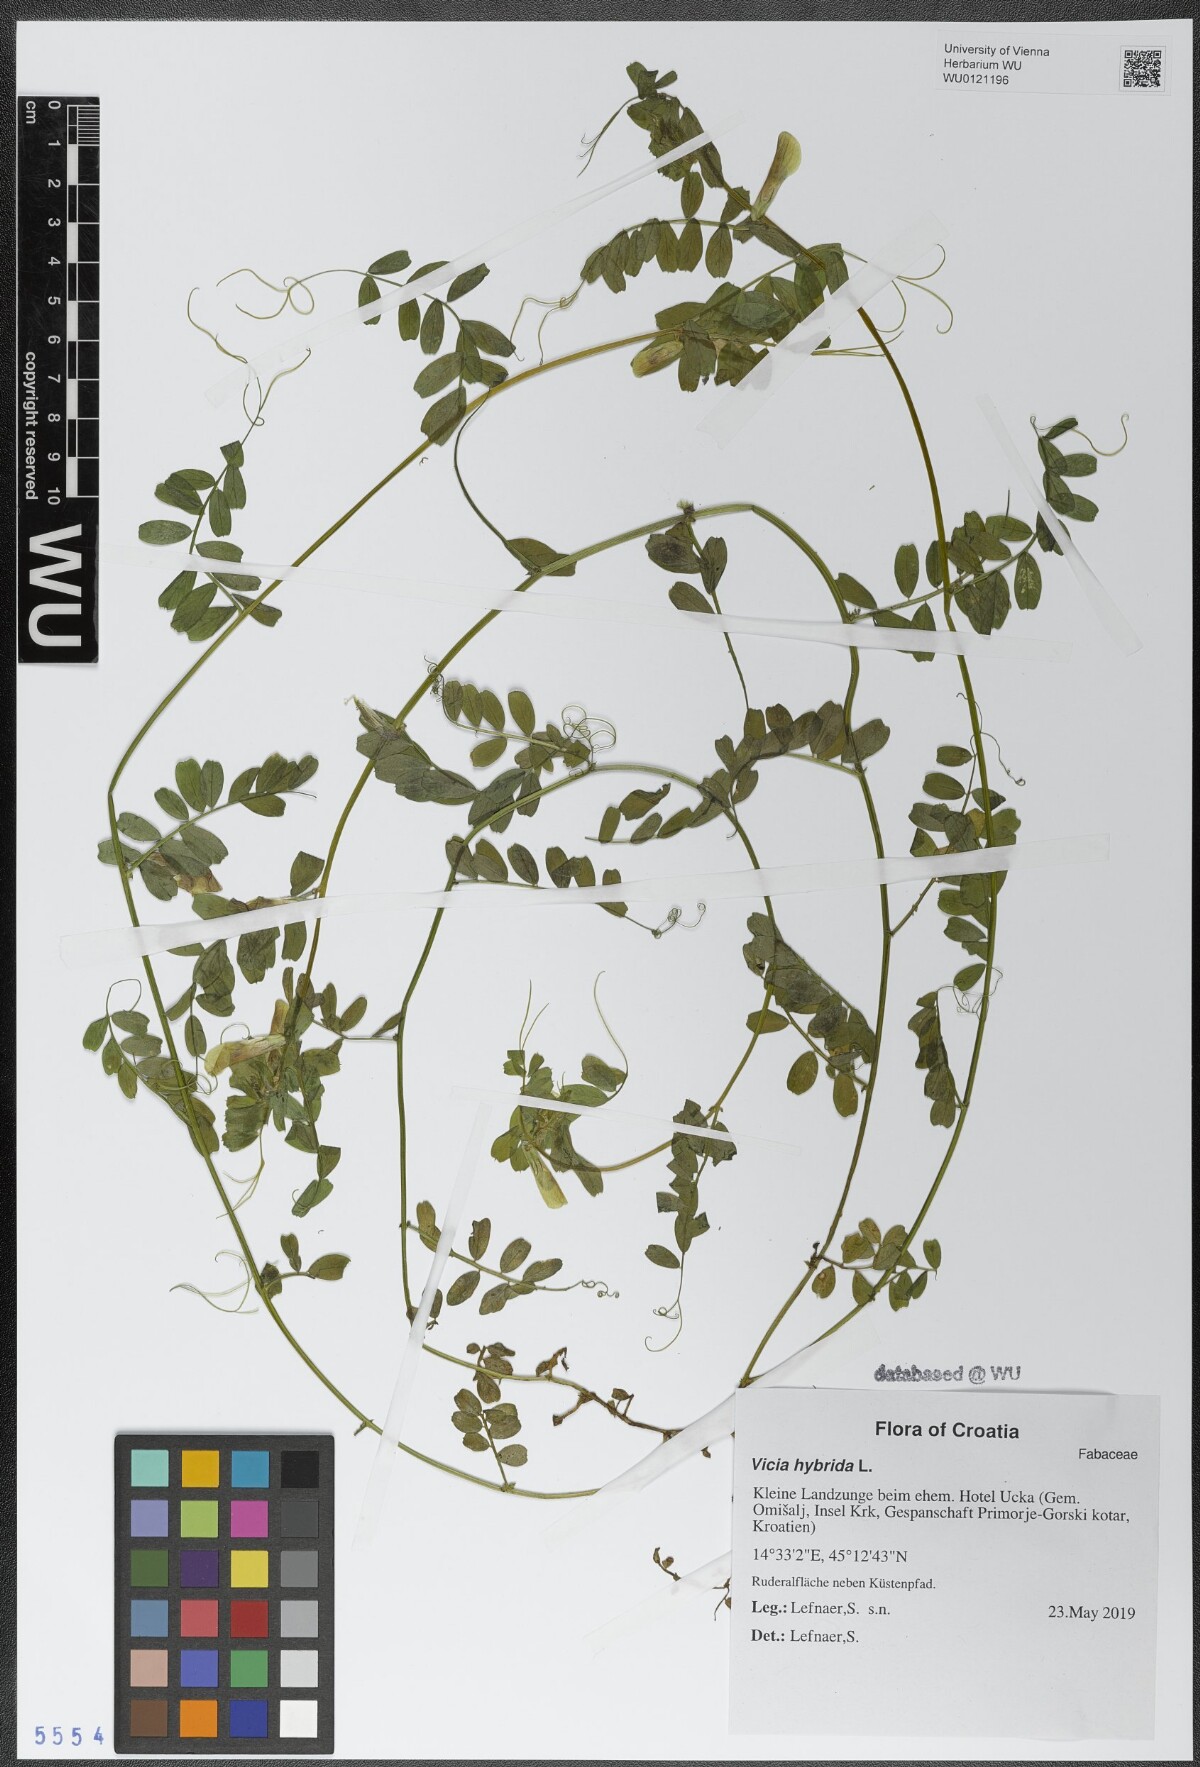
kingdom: Plantae
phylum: Tracheophyta
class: Magnoliopsida
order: Fabales
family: Fabaceae
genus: Vicia
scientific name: Vicia hybrida
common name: Hairy yellow vetch
